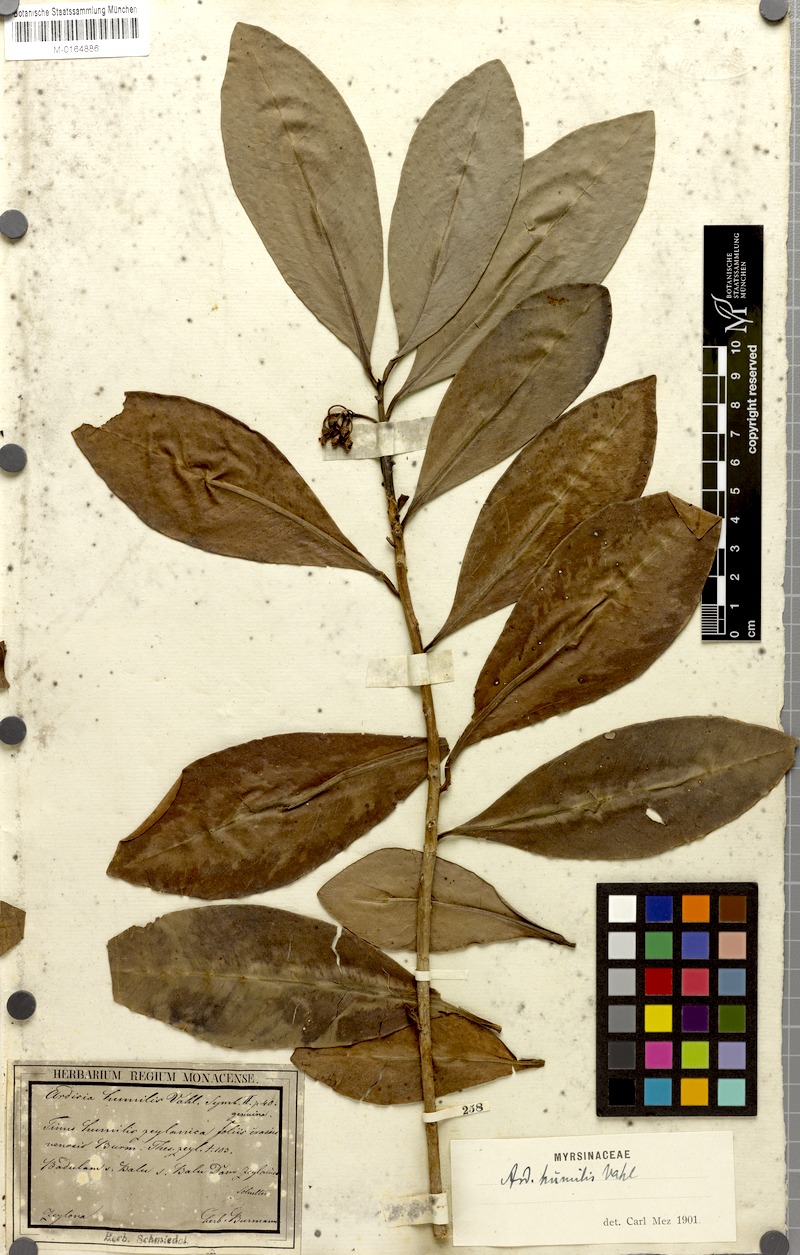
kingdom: Plantae
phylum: Tracheophyta
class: Magnoliopsida
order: Ericales
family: Primulaceae
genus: Ardisia
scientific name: Ardisia humilis
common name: Low shoebutton
